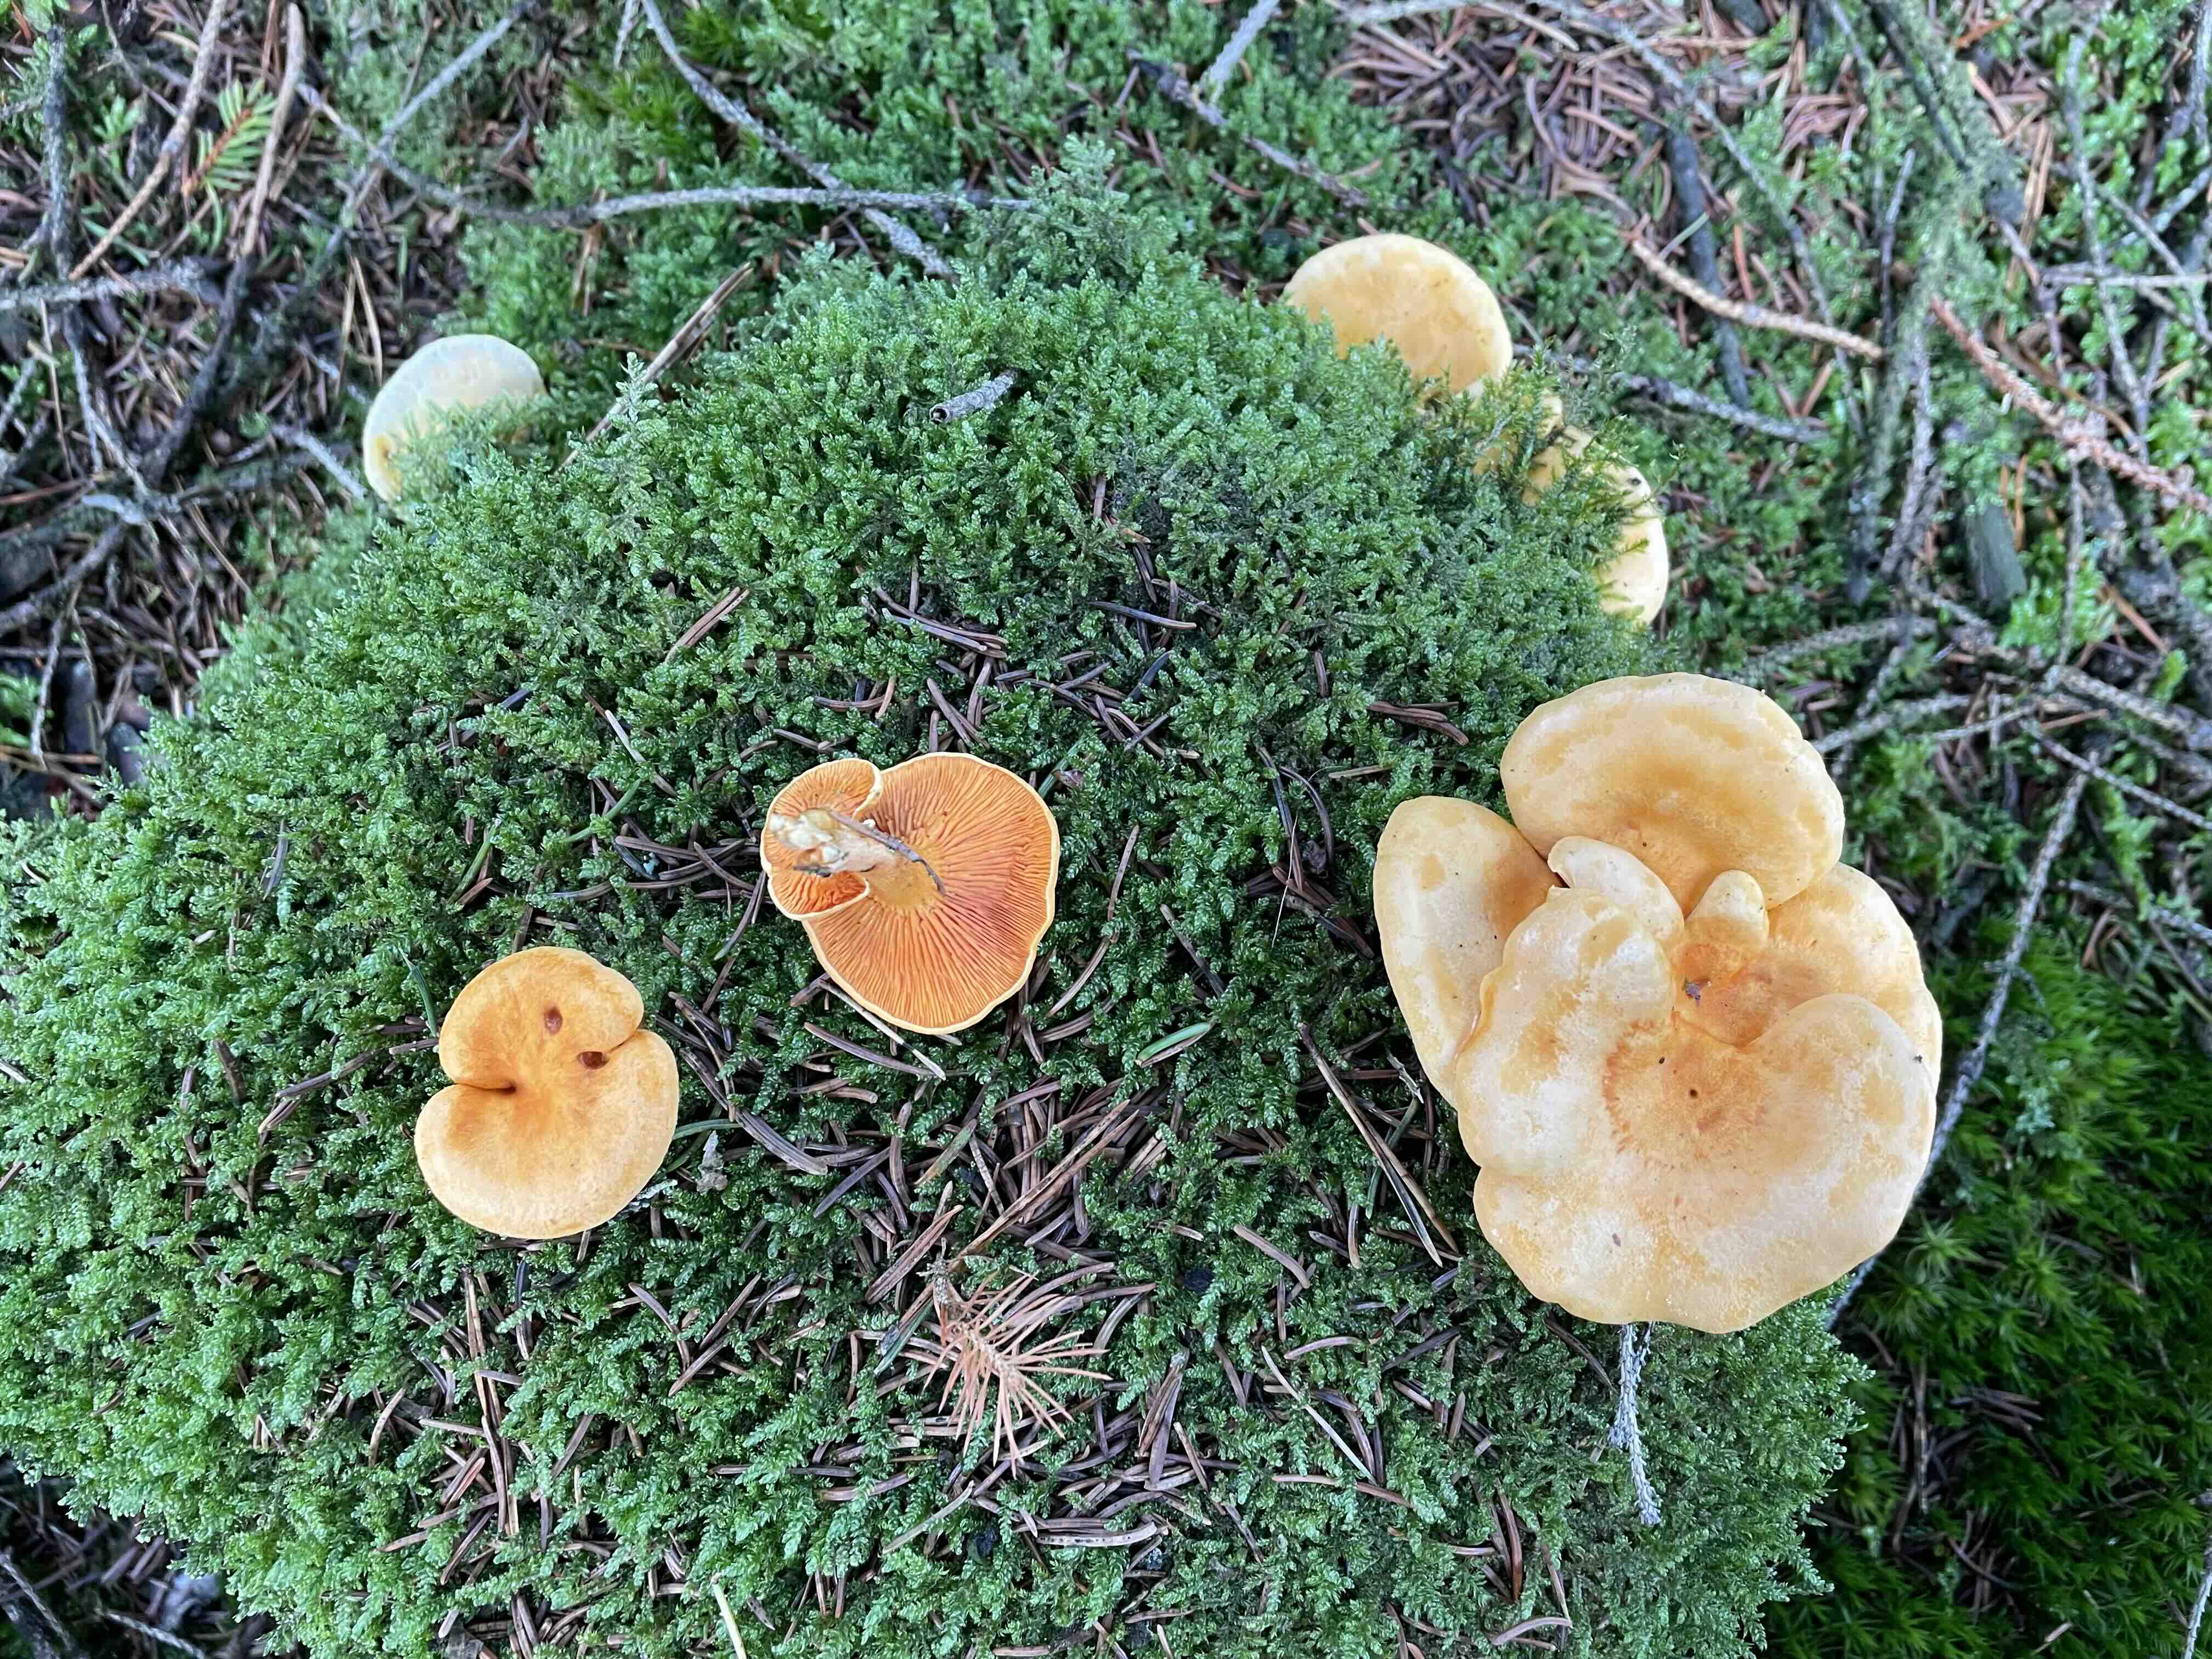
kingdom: Fungi
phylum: Basidiomycota
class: Agaricomycetes
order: Boletales
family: Hygrophoropsidaceae
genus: Hygrophoropsis
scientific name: Hygrophoropsis aurantiaca
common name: almindelig orangekantarel
